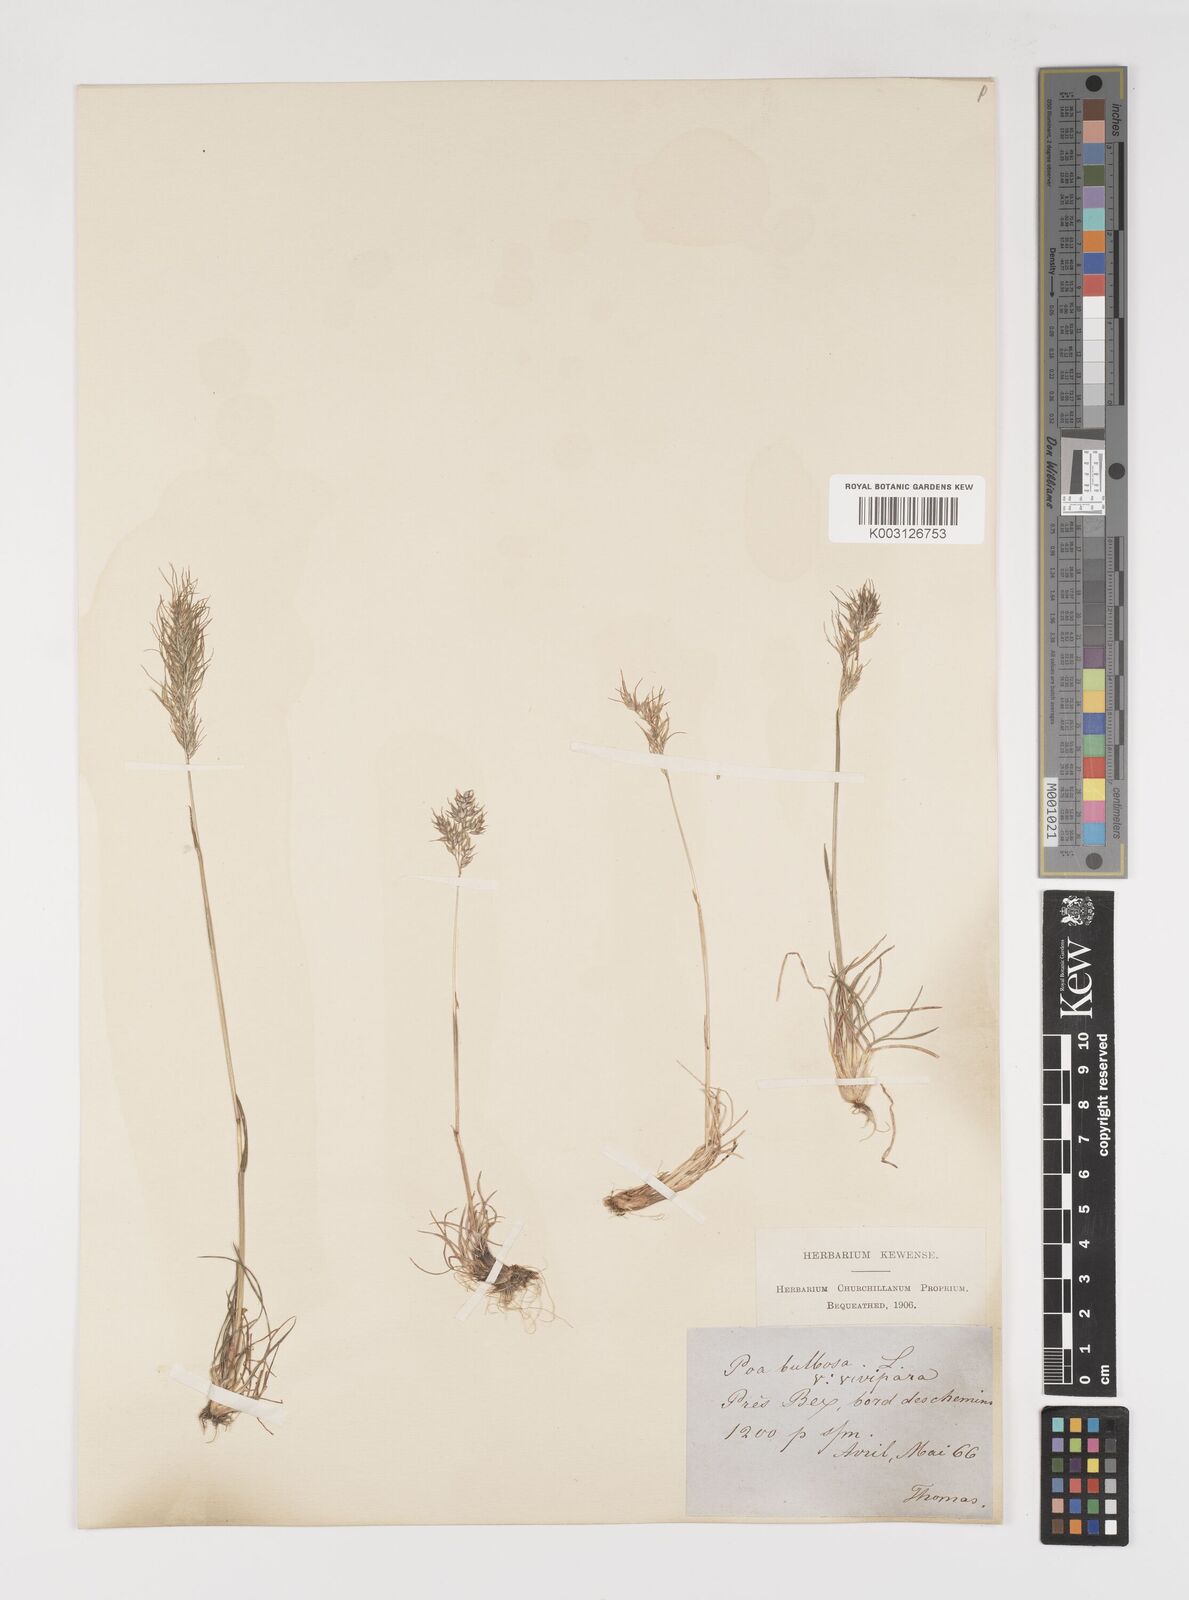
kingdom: Plantae
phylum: Tracheophyta
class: Liliopsida
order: Poales
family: Poaceae
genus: Poa
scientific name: Poa bulbosa
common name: Bulbous bluegrass
